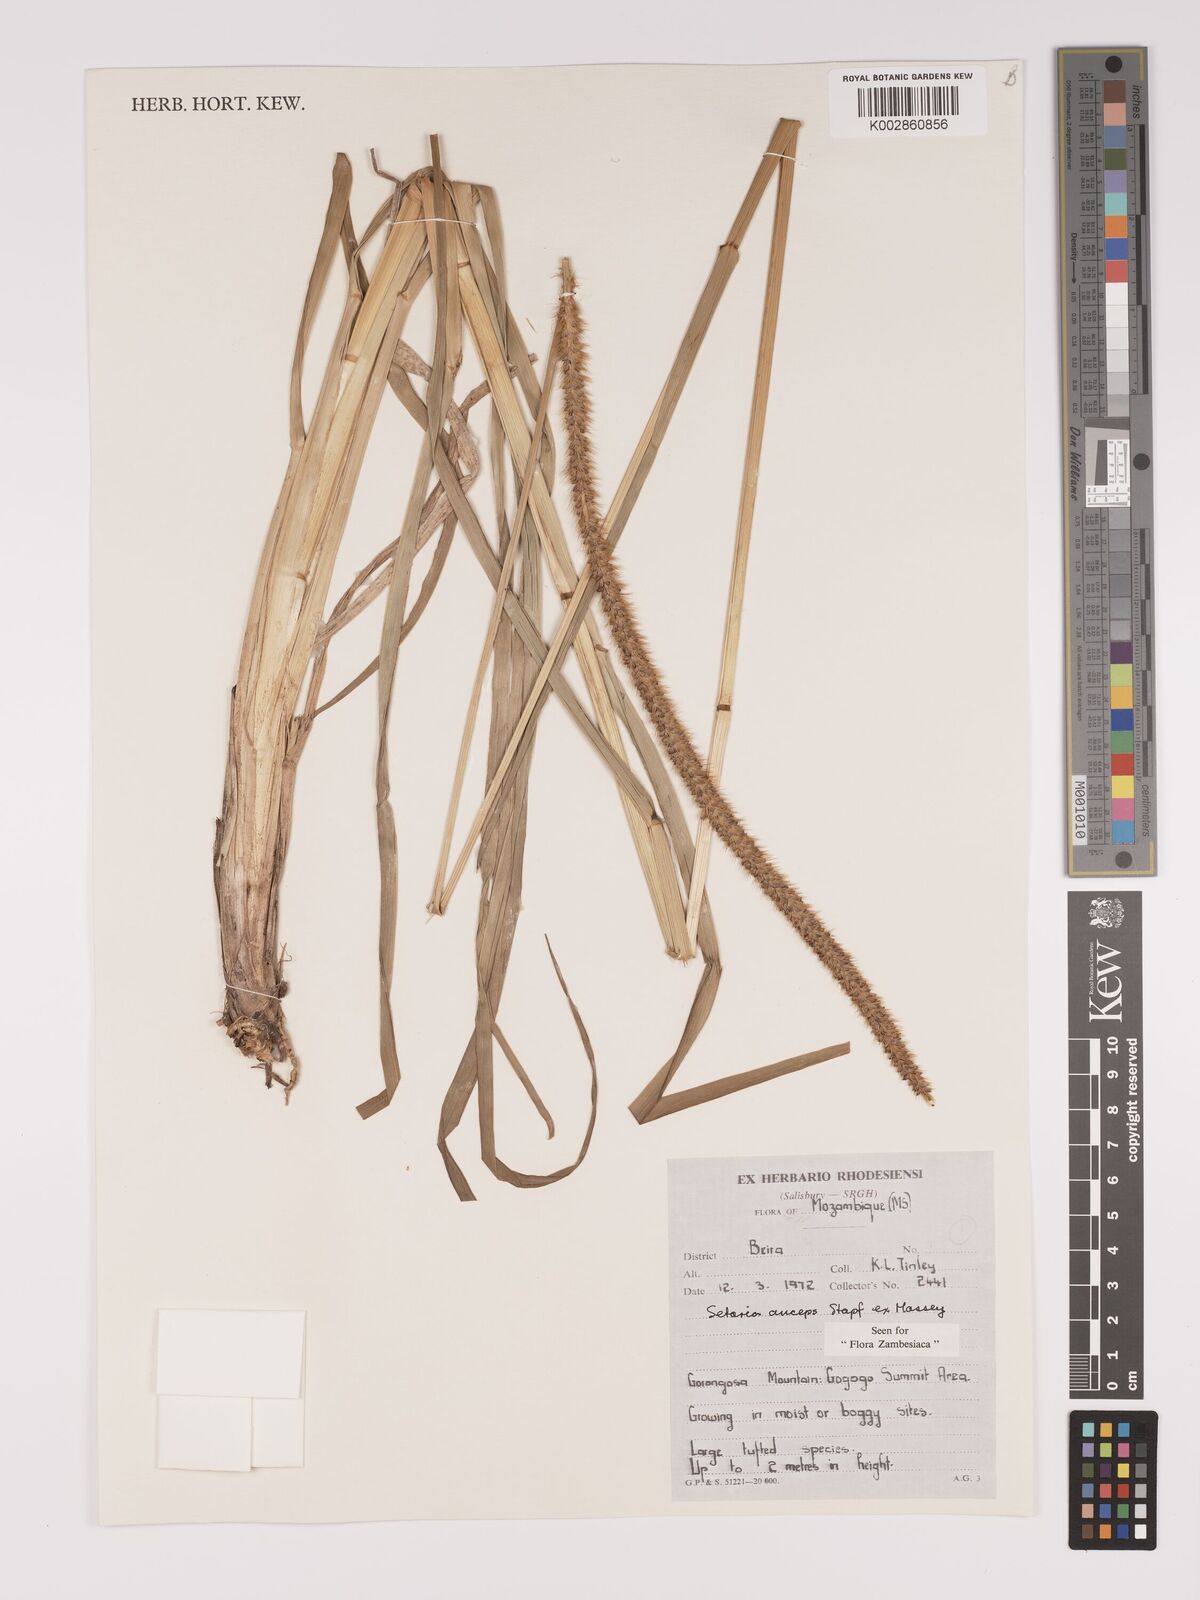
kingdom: Plantae
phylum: Tracheophyta
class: Liliopsida
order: Poales
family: Poaceae
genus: Setaria
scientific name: Setaria sphacelata
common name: African bristlegrass
